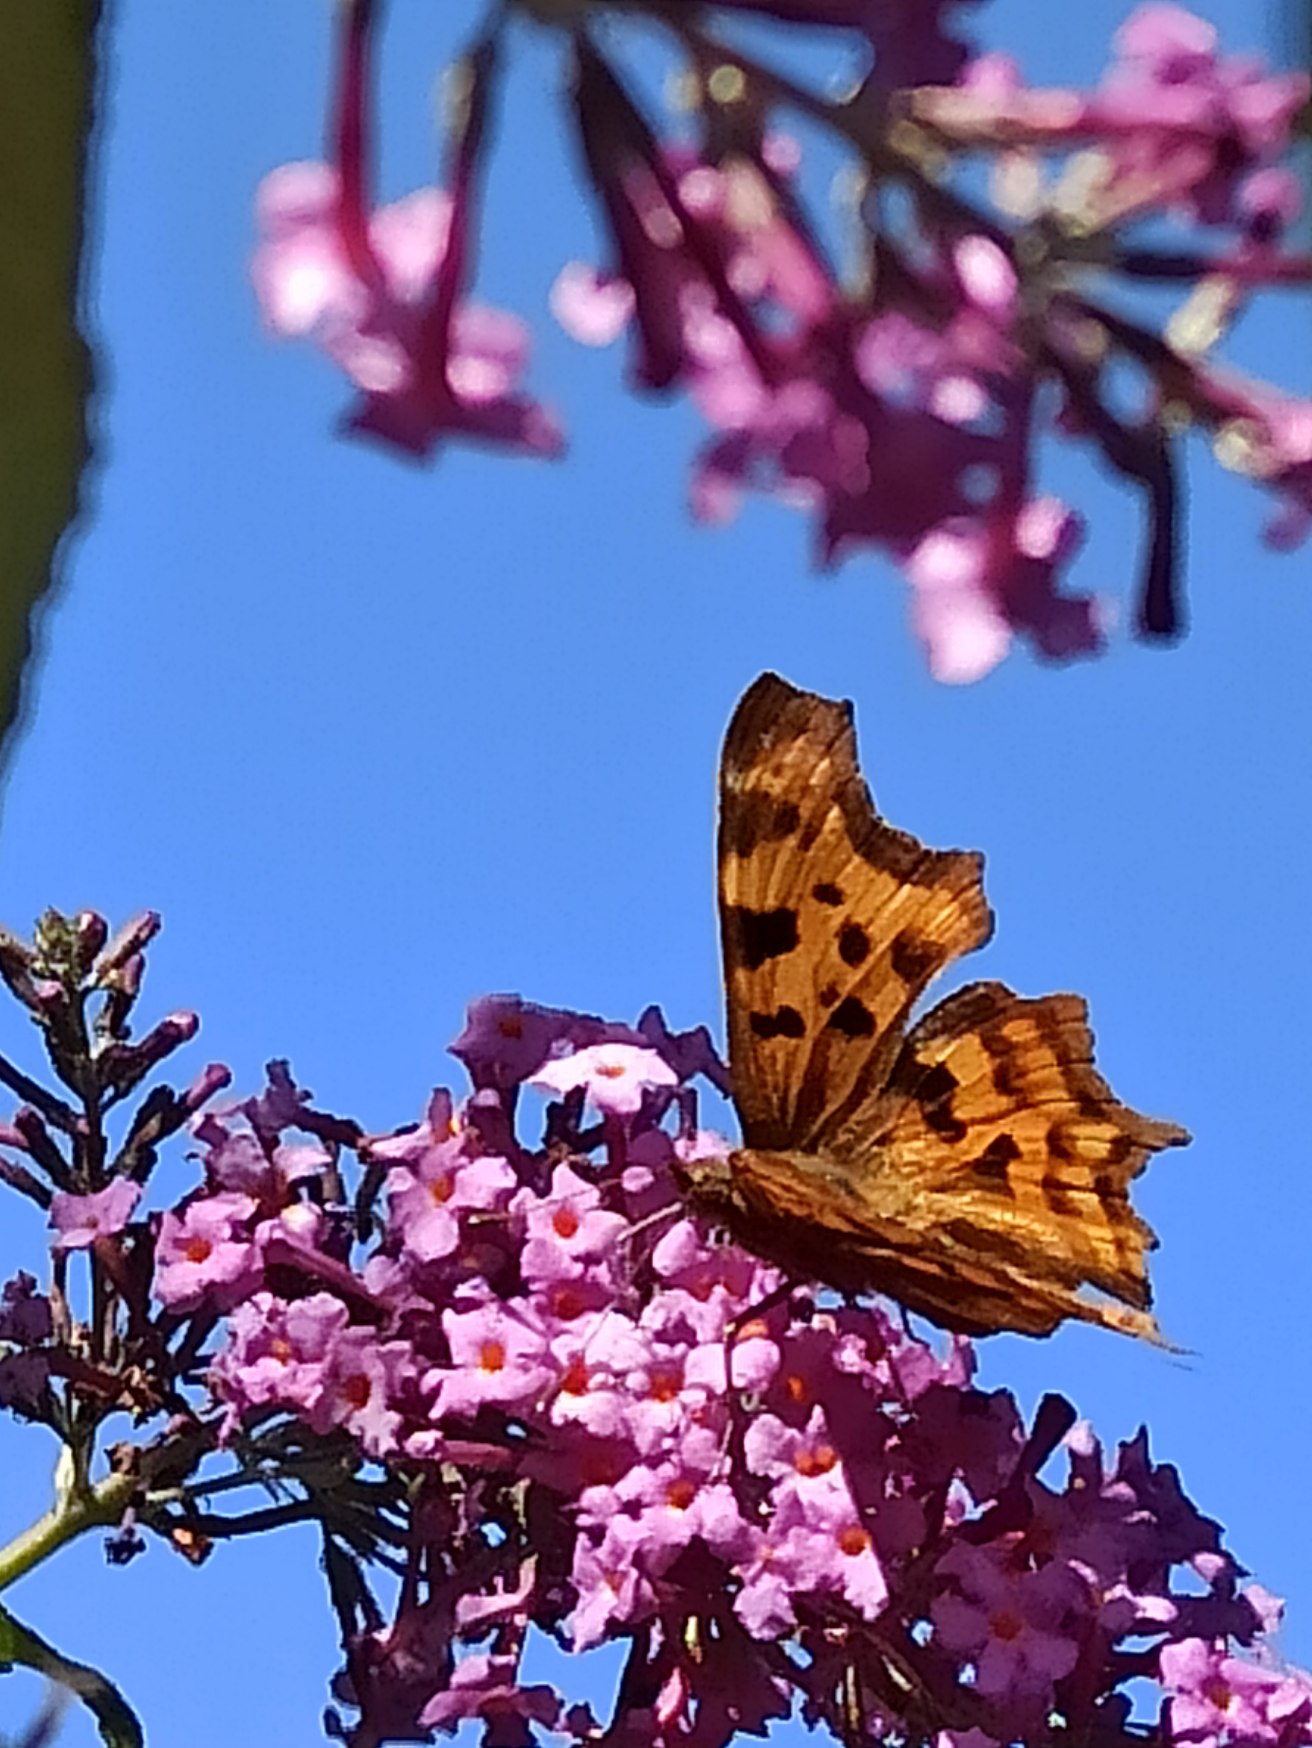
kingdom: Animalia
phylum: Arthropoda
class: Insecta
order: Lepidoptera
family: Nymphalidae
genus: Polygonia
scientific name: Polygonia c-album
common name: Det hvide C
